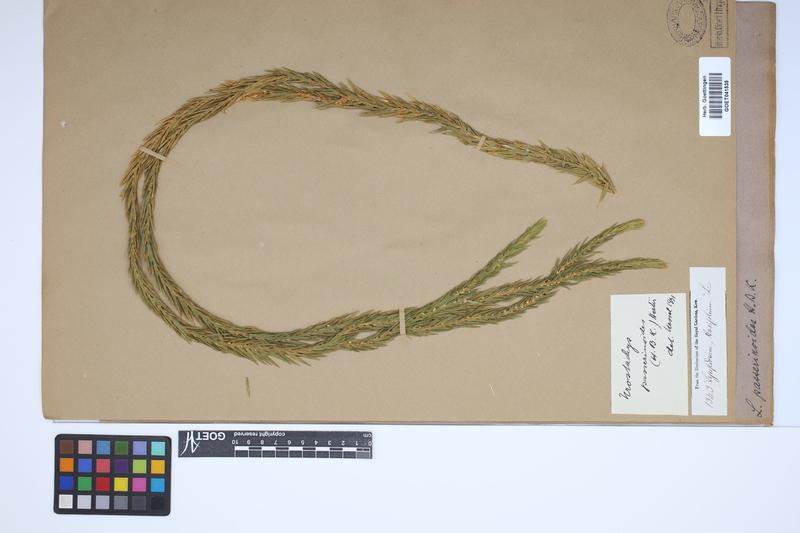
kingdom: Plantae
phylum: Tracheophyta
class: Lycopodiopsida
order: Lycopodiales
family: Lycopodiaceae
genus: Phlegmariurus
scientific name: Phlegmariurus taxifolius
